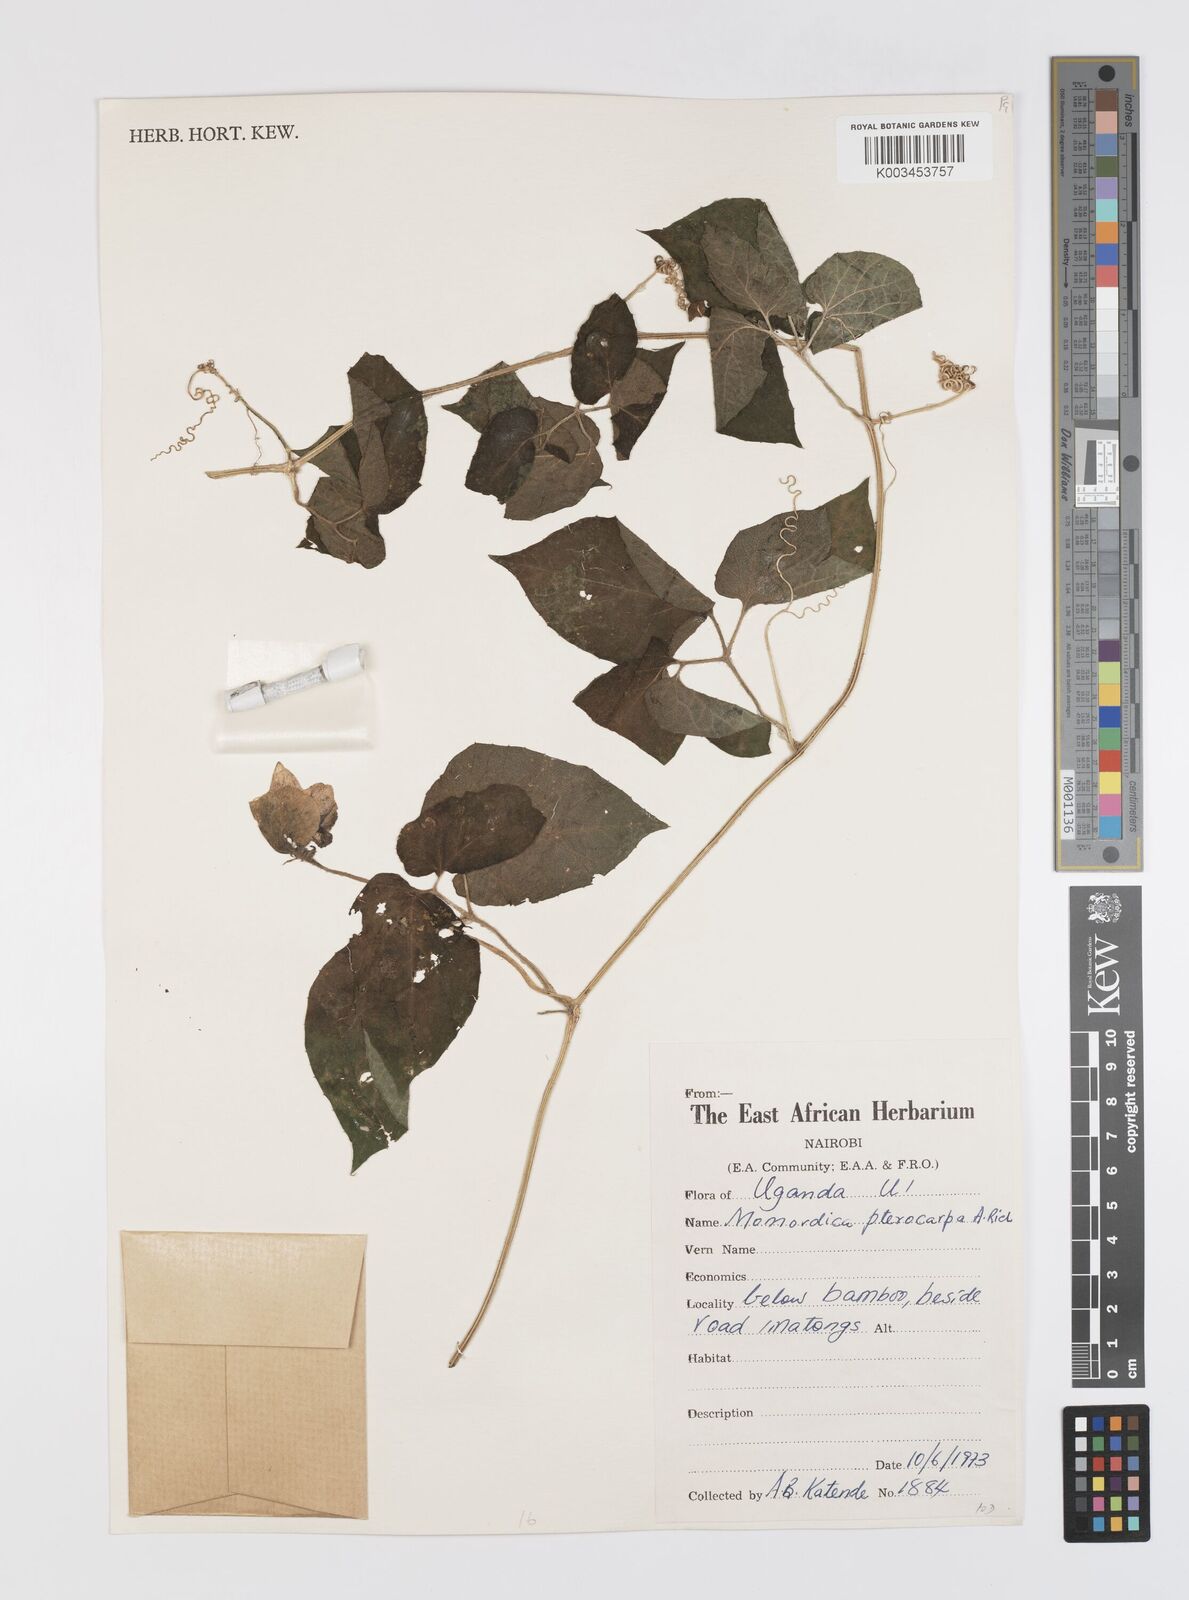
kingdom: Plantae
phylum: Tracheophyta
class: Magnoliopsida
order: Cucurbitales
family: Cucurbitaceae
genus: Momordica
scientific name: Momordica pterocarpa
